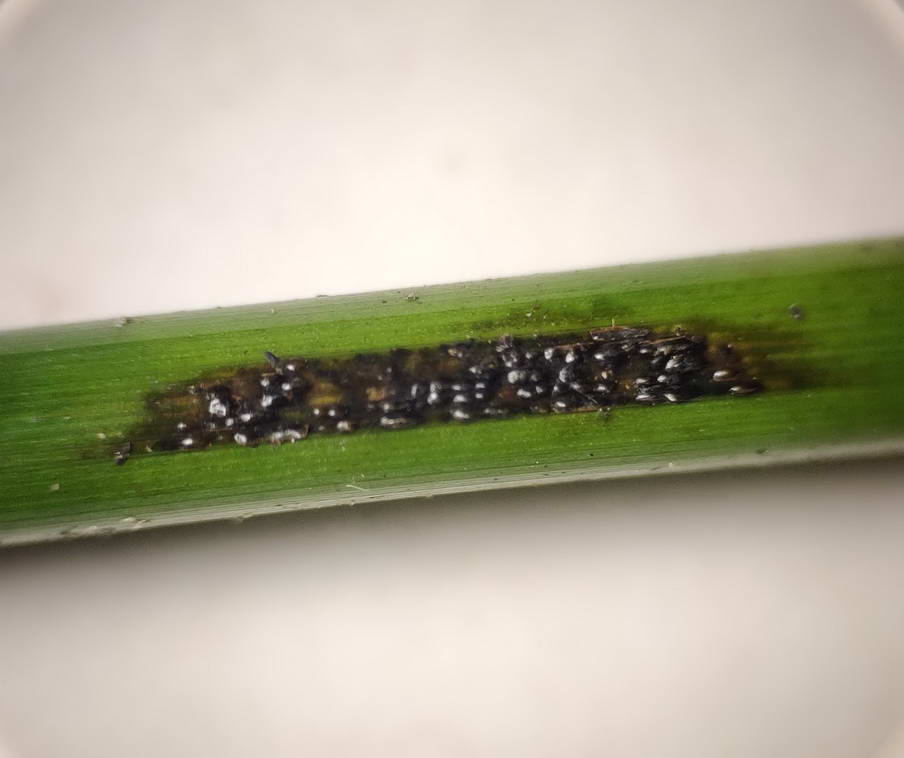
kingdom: Fungi
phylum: Ascomycota
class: Sordariomycetes
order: Phyllachorales
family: Phyllachoraceae
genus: Phyllachora
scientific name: Phyllachora junci
